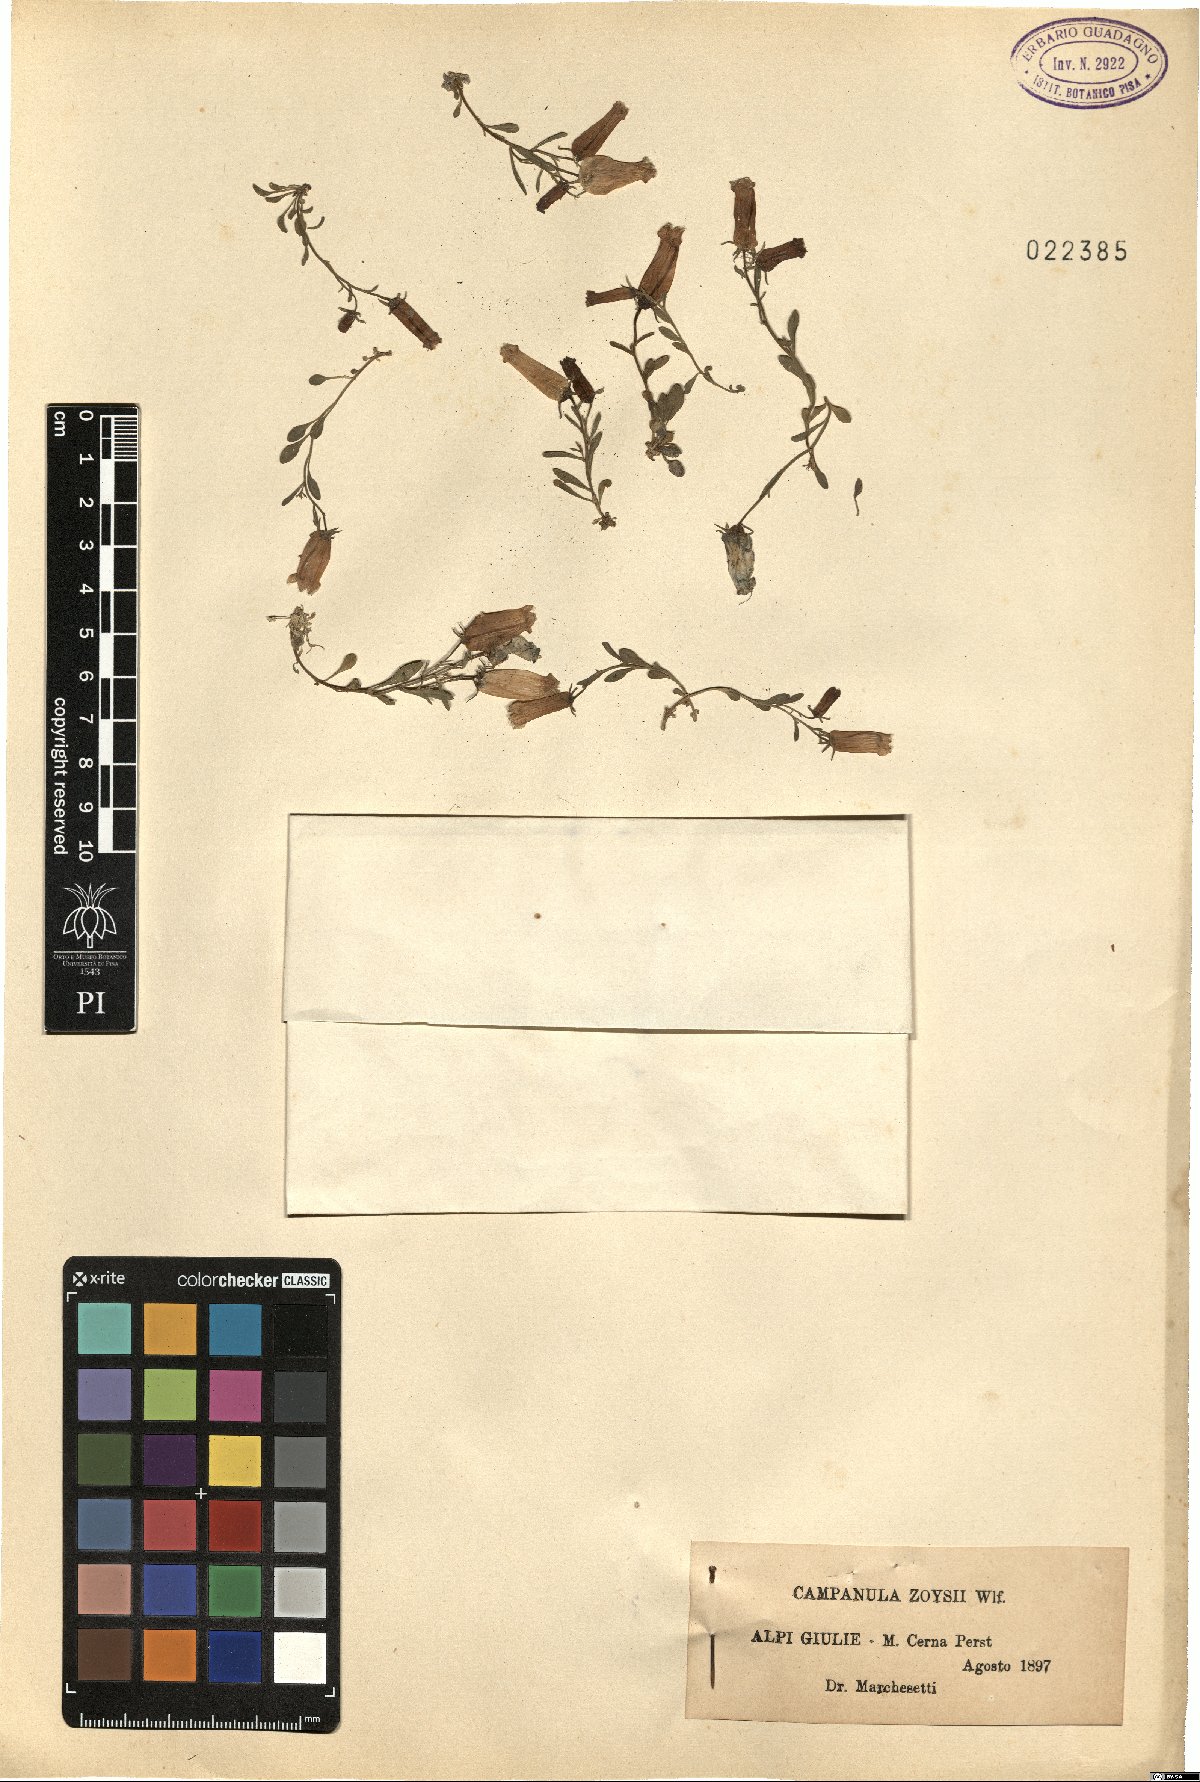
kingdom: Plantae
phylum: Tracheophyta
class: Magnoliopsida
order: Asterales
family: Campanulaceae
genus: Favratia
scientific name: Favratia zoysii
